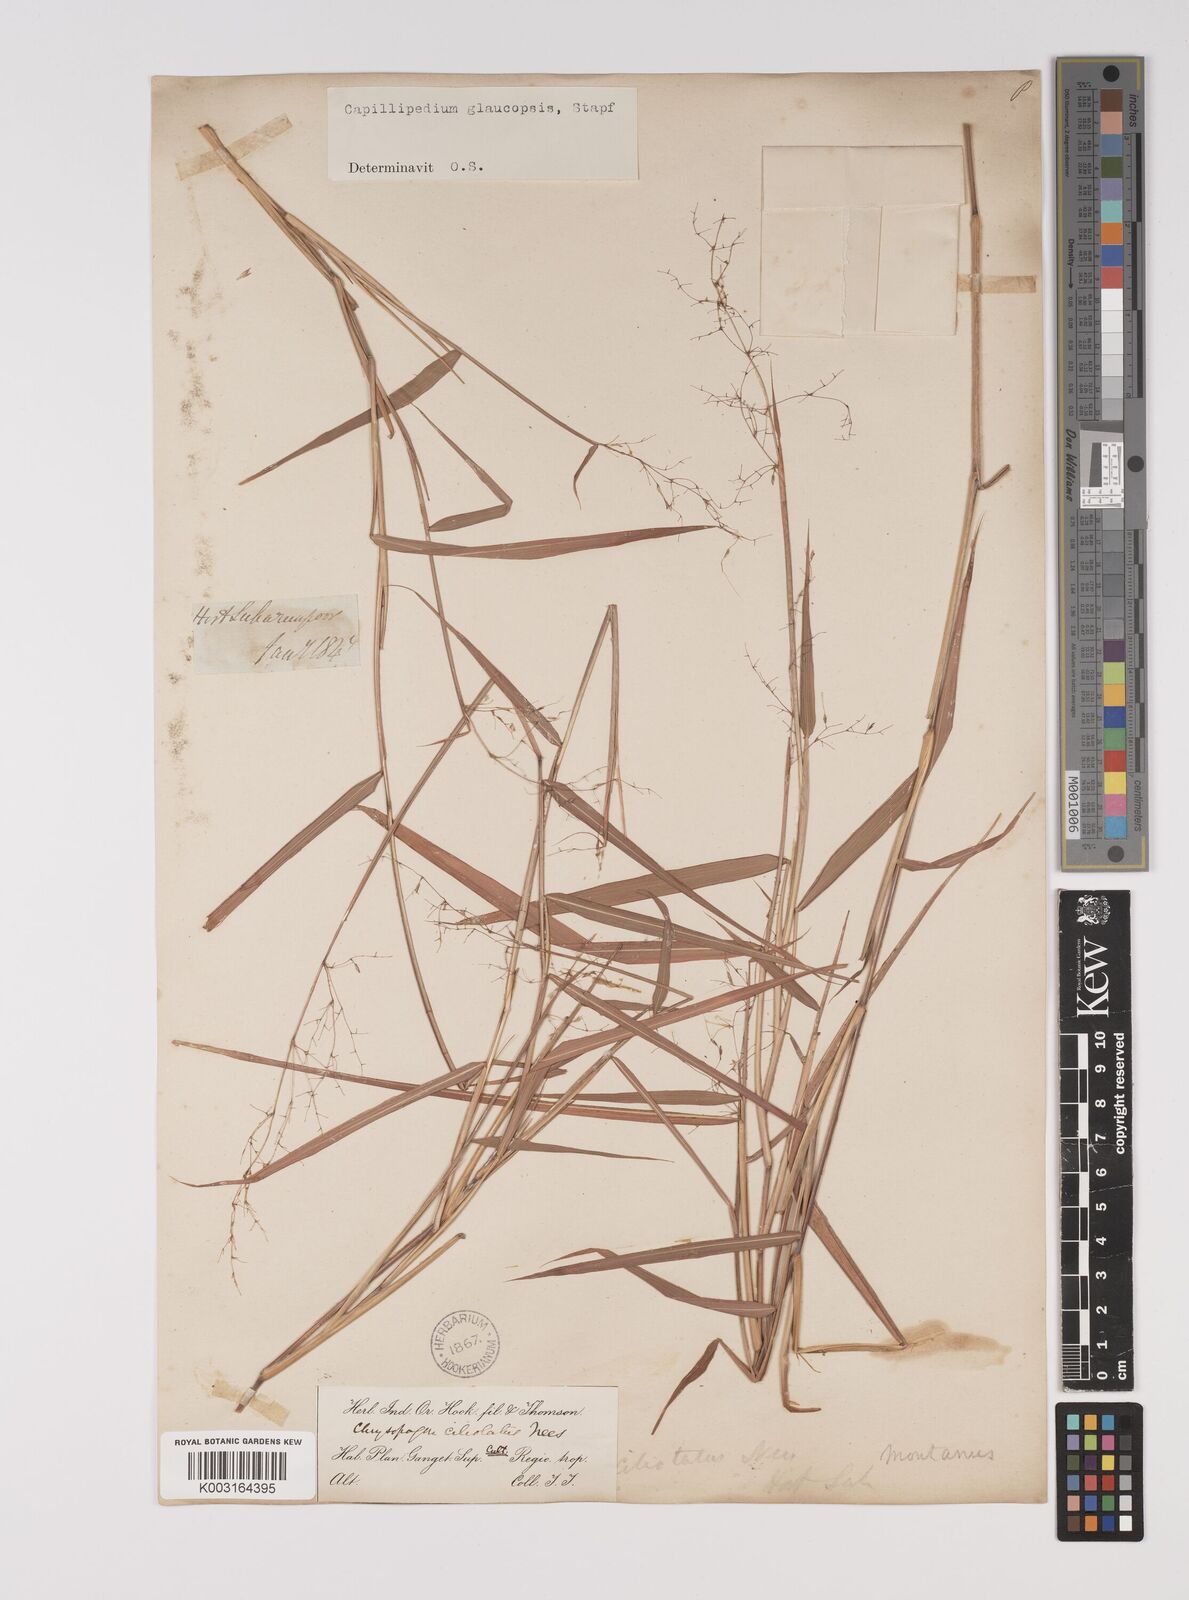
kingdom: Plantae
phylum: Tracheophyta
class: Liliopsida
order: Poales
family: Poaceae
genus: Capillipedium
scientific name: Capillipedium assimile
